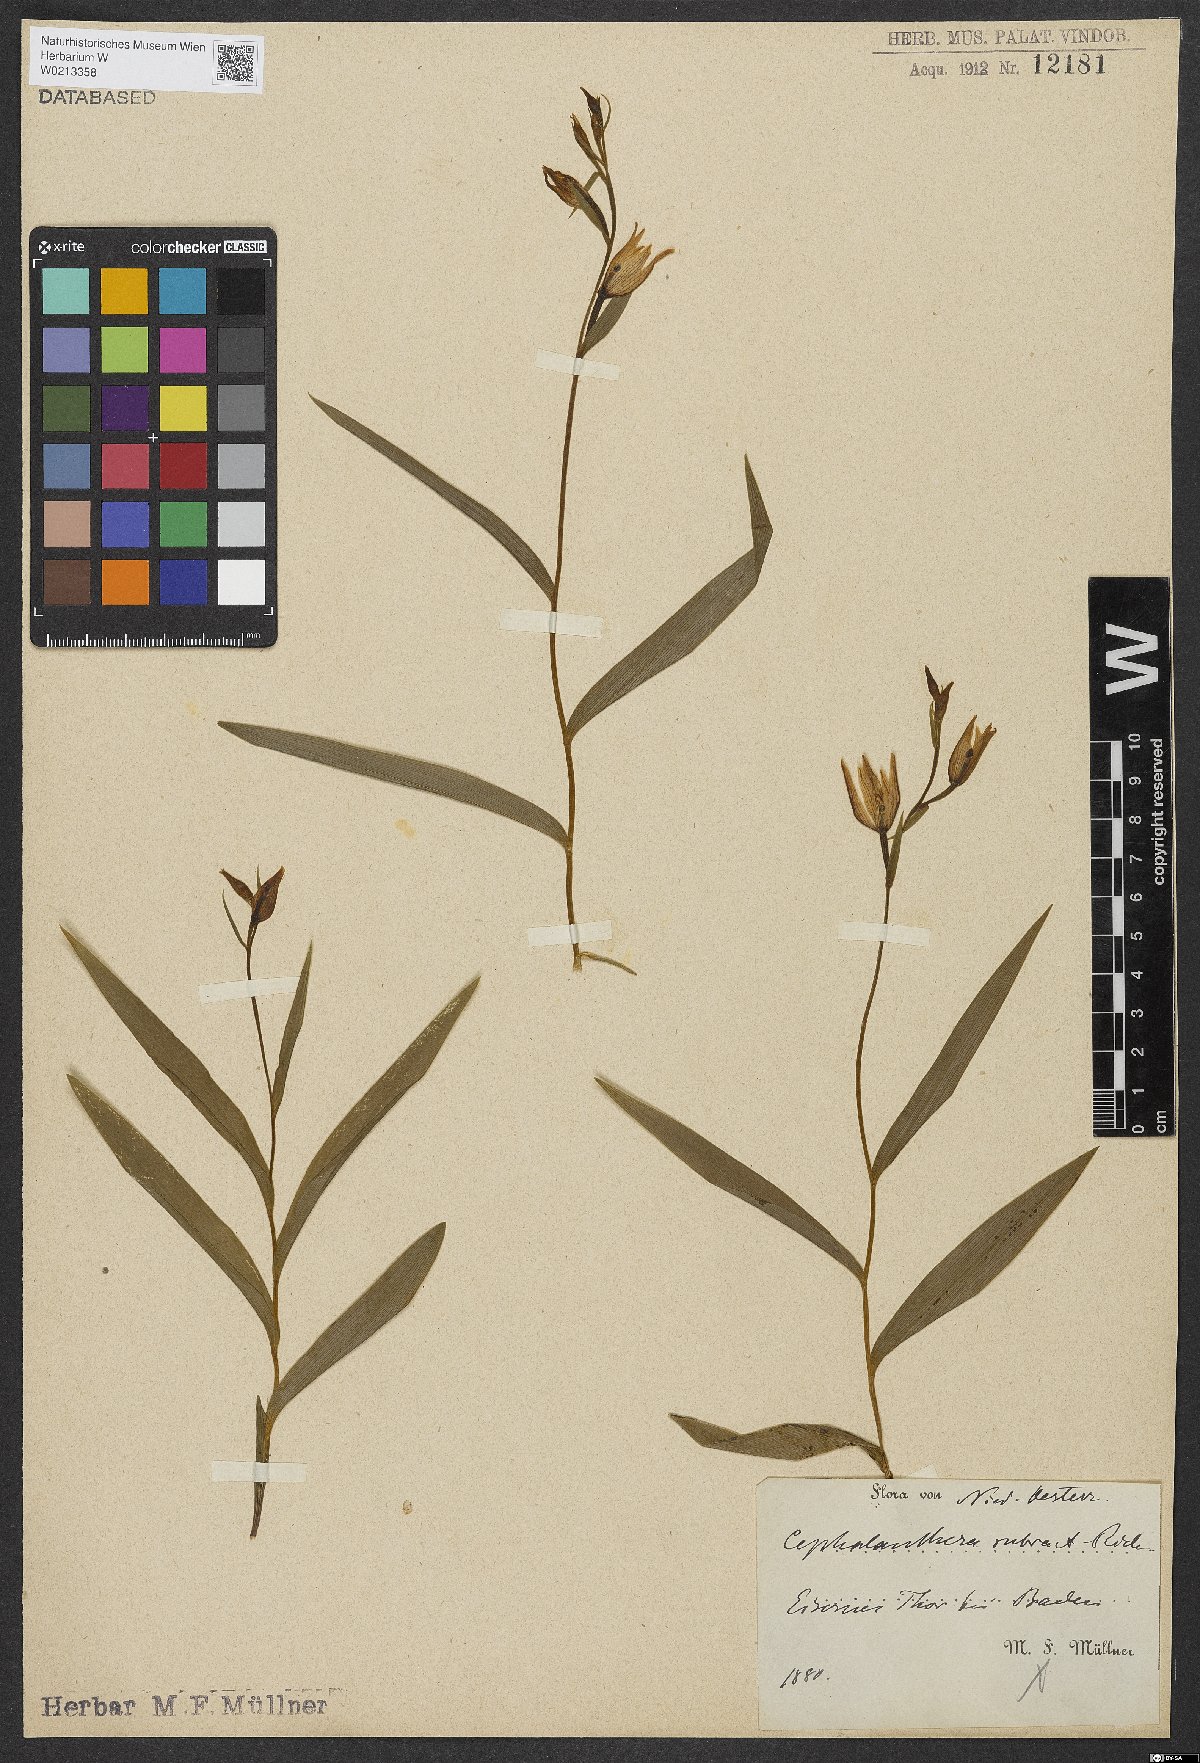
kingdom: Plantae
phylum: Tracheophyta
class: Liliopsida
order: Asparagales
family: Orchidaceae
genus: Cephalanthera
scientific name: Cephalanthera rubra
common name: Red helleborine
